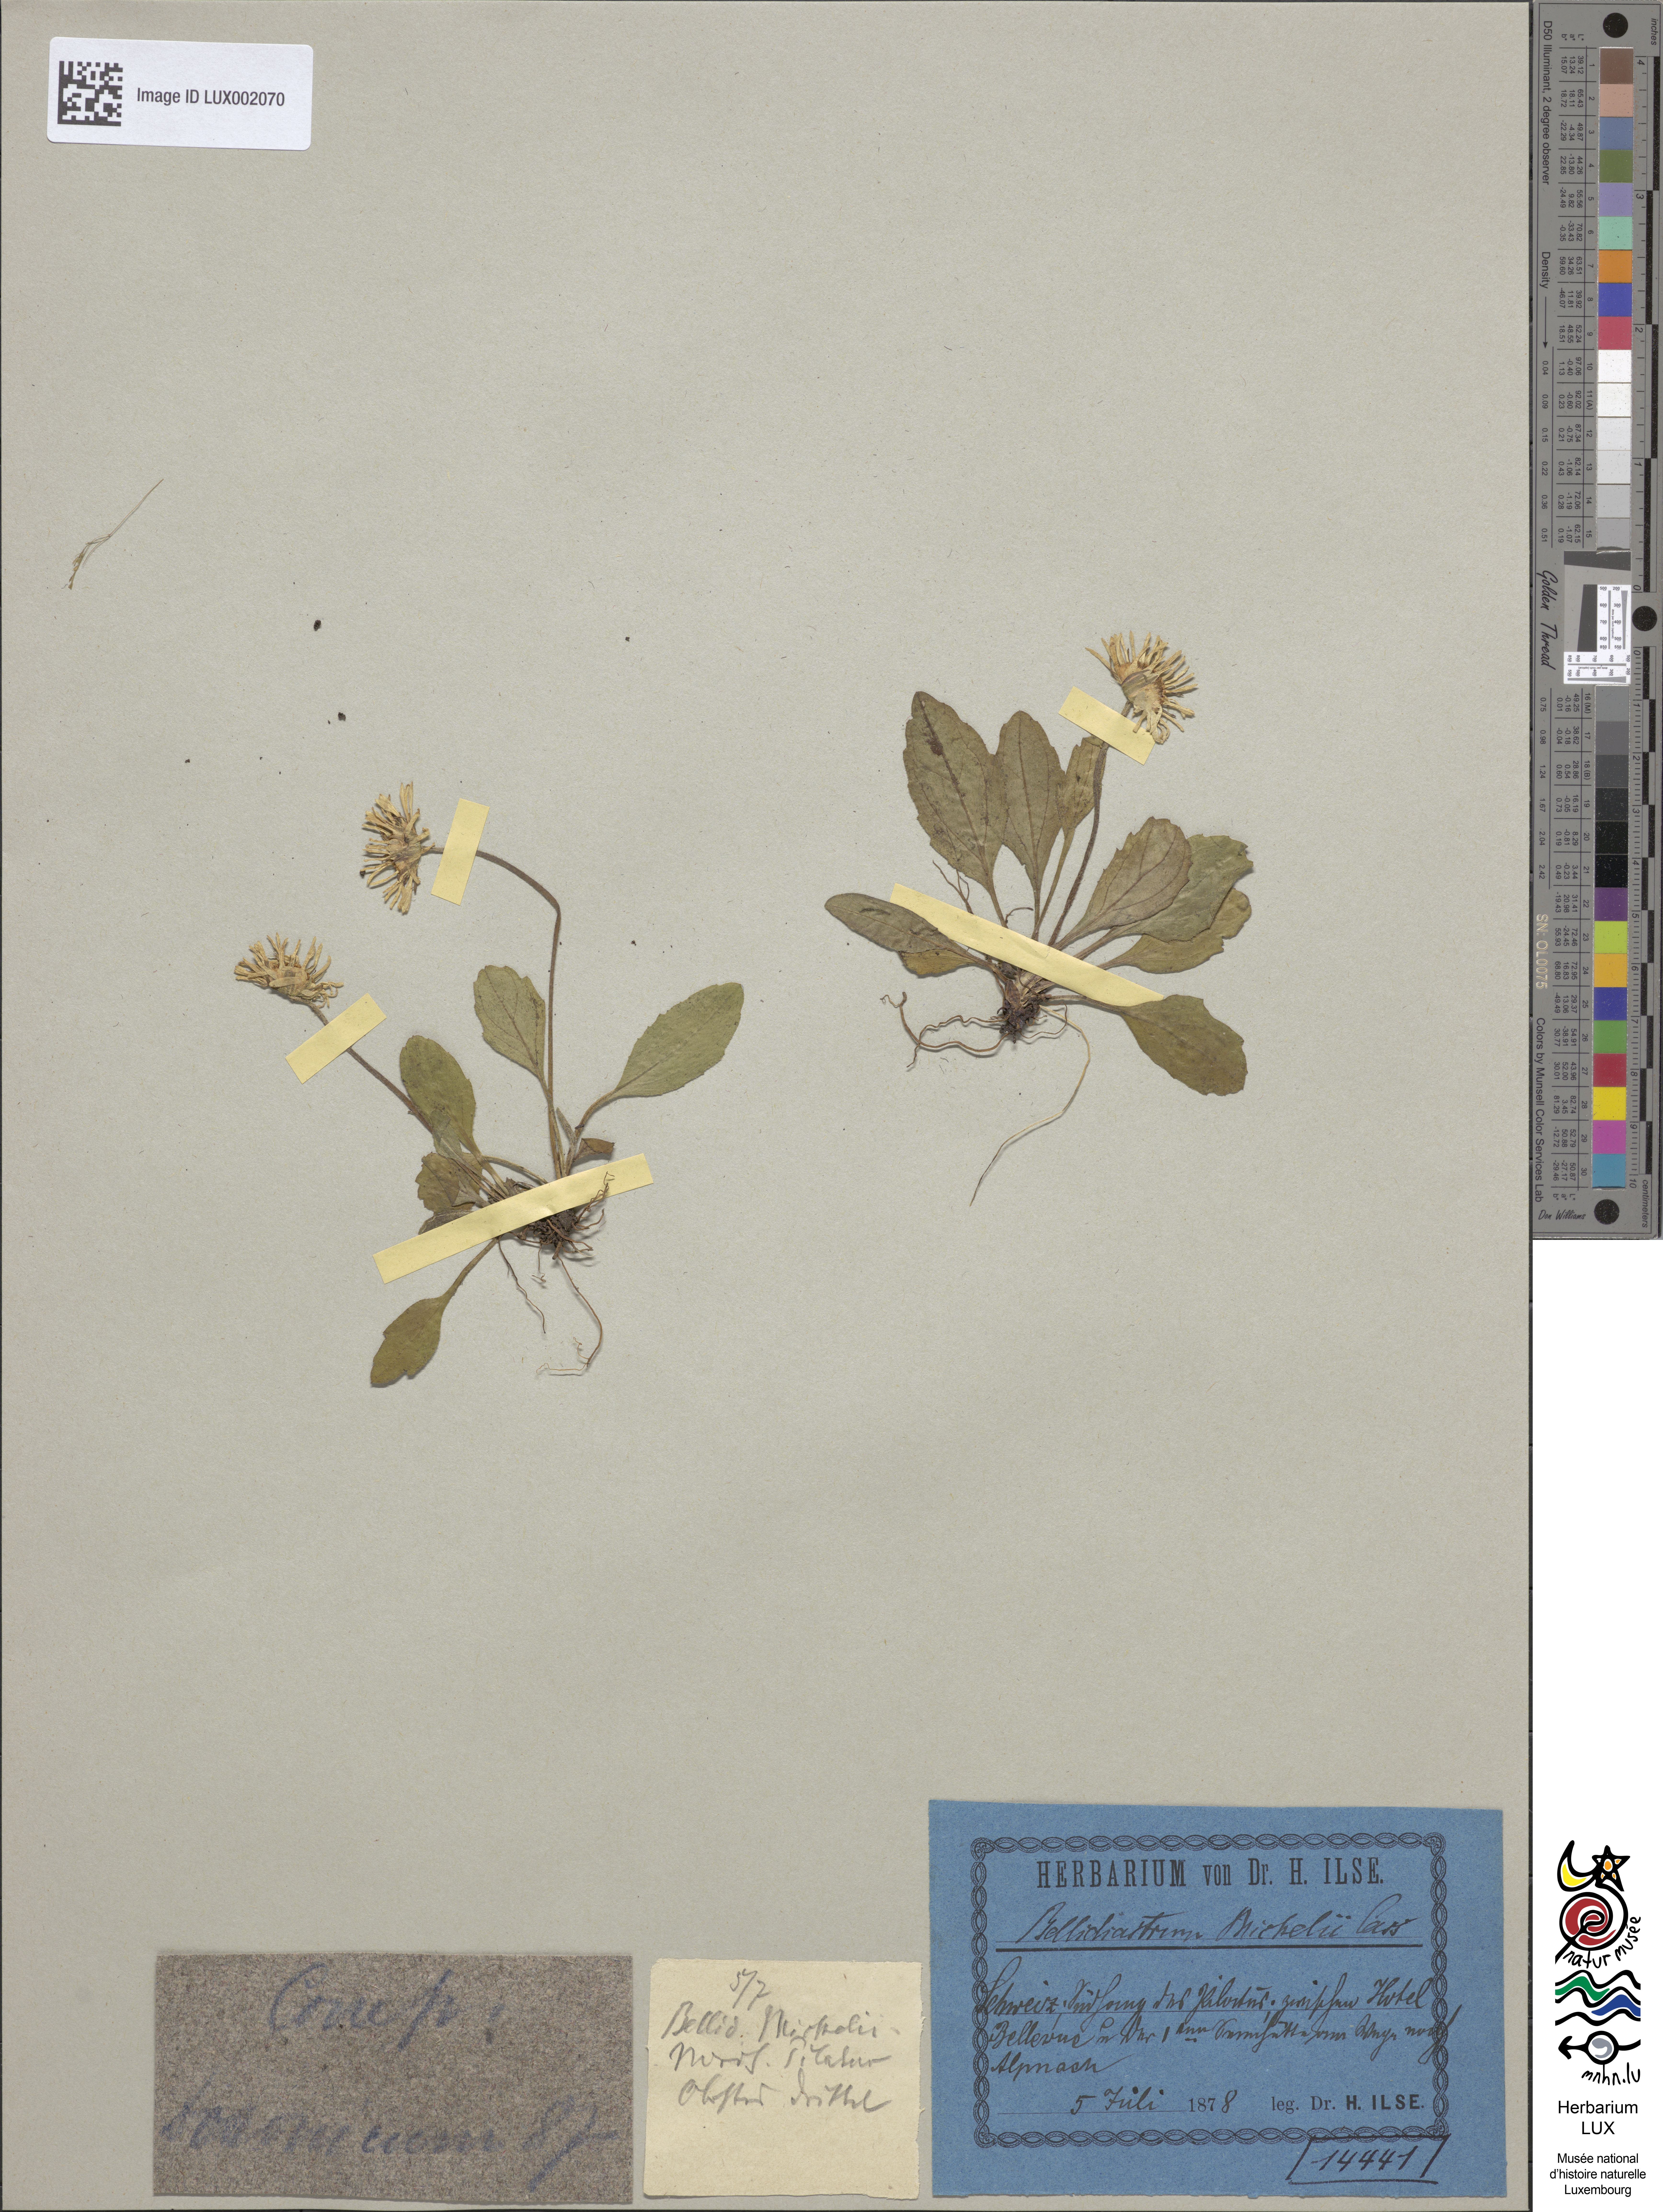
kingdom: Plantae
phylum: Tracheophyta
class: Magnoliopsida
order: Asterales
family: Asteraceae
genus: Bellidiastrum
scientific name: Bellidiastrum michelii
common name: Daisy-star aster
